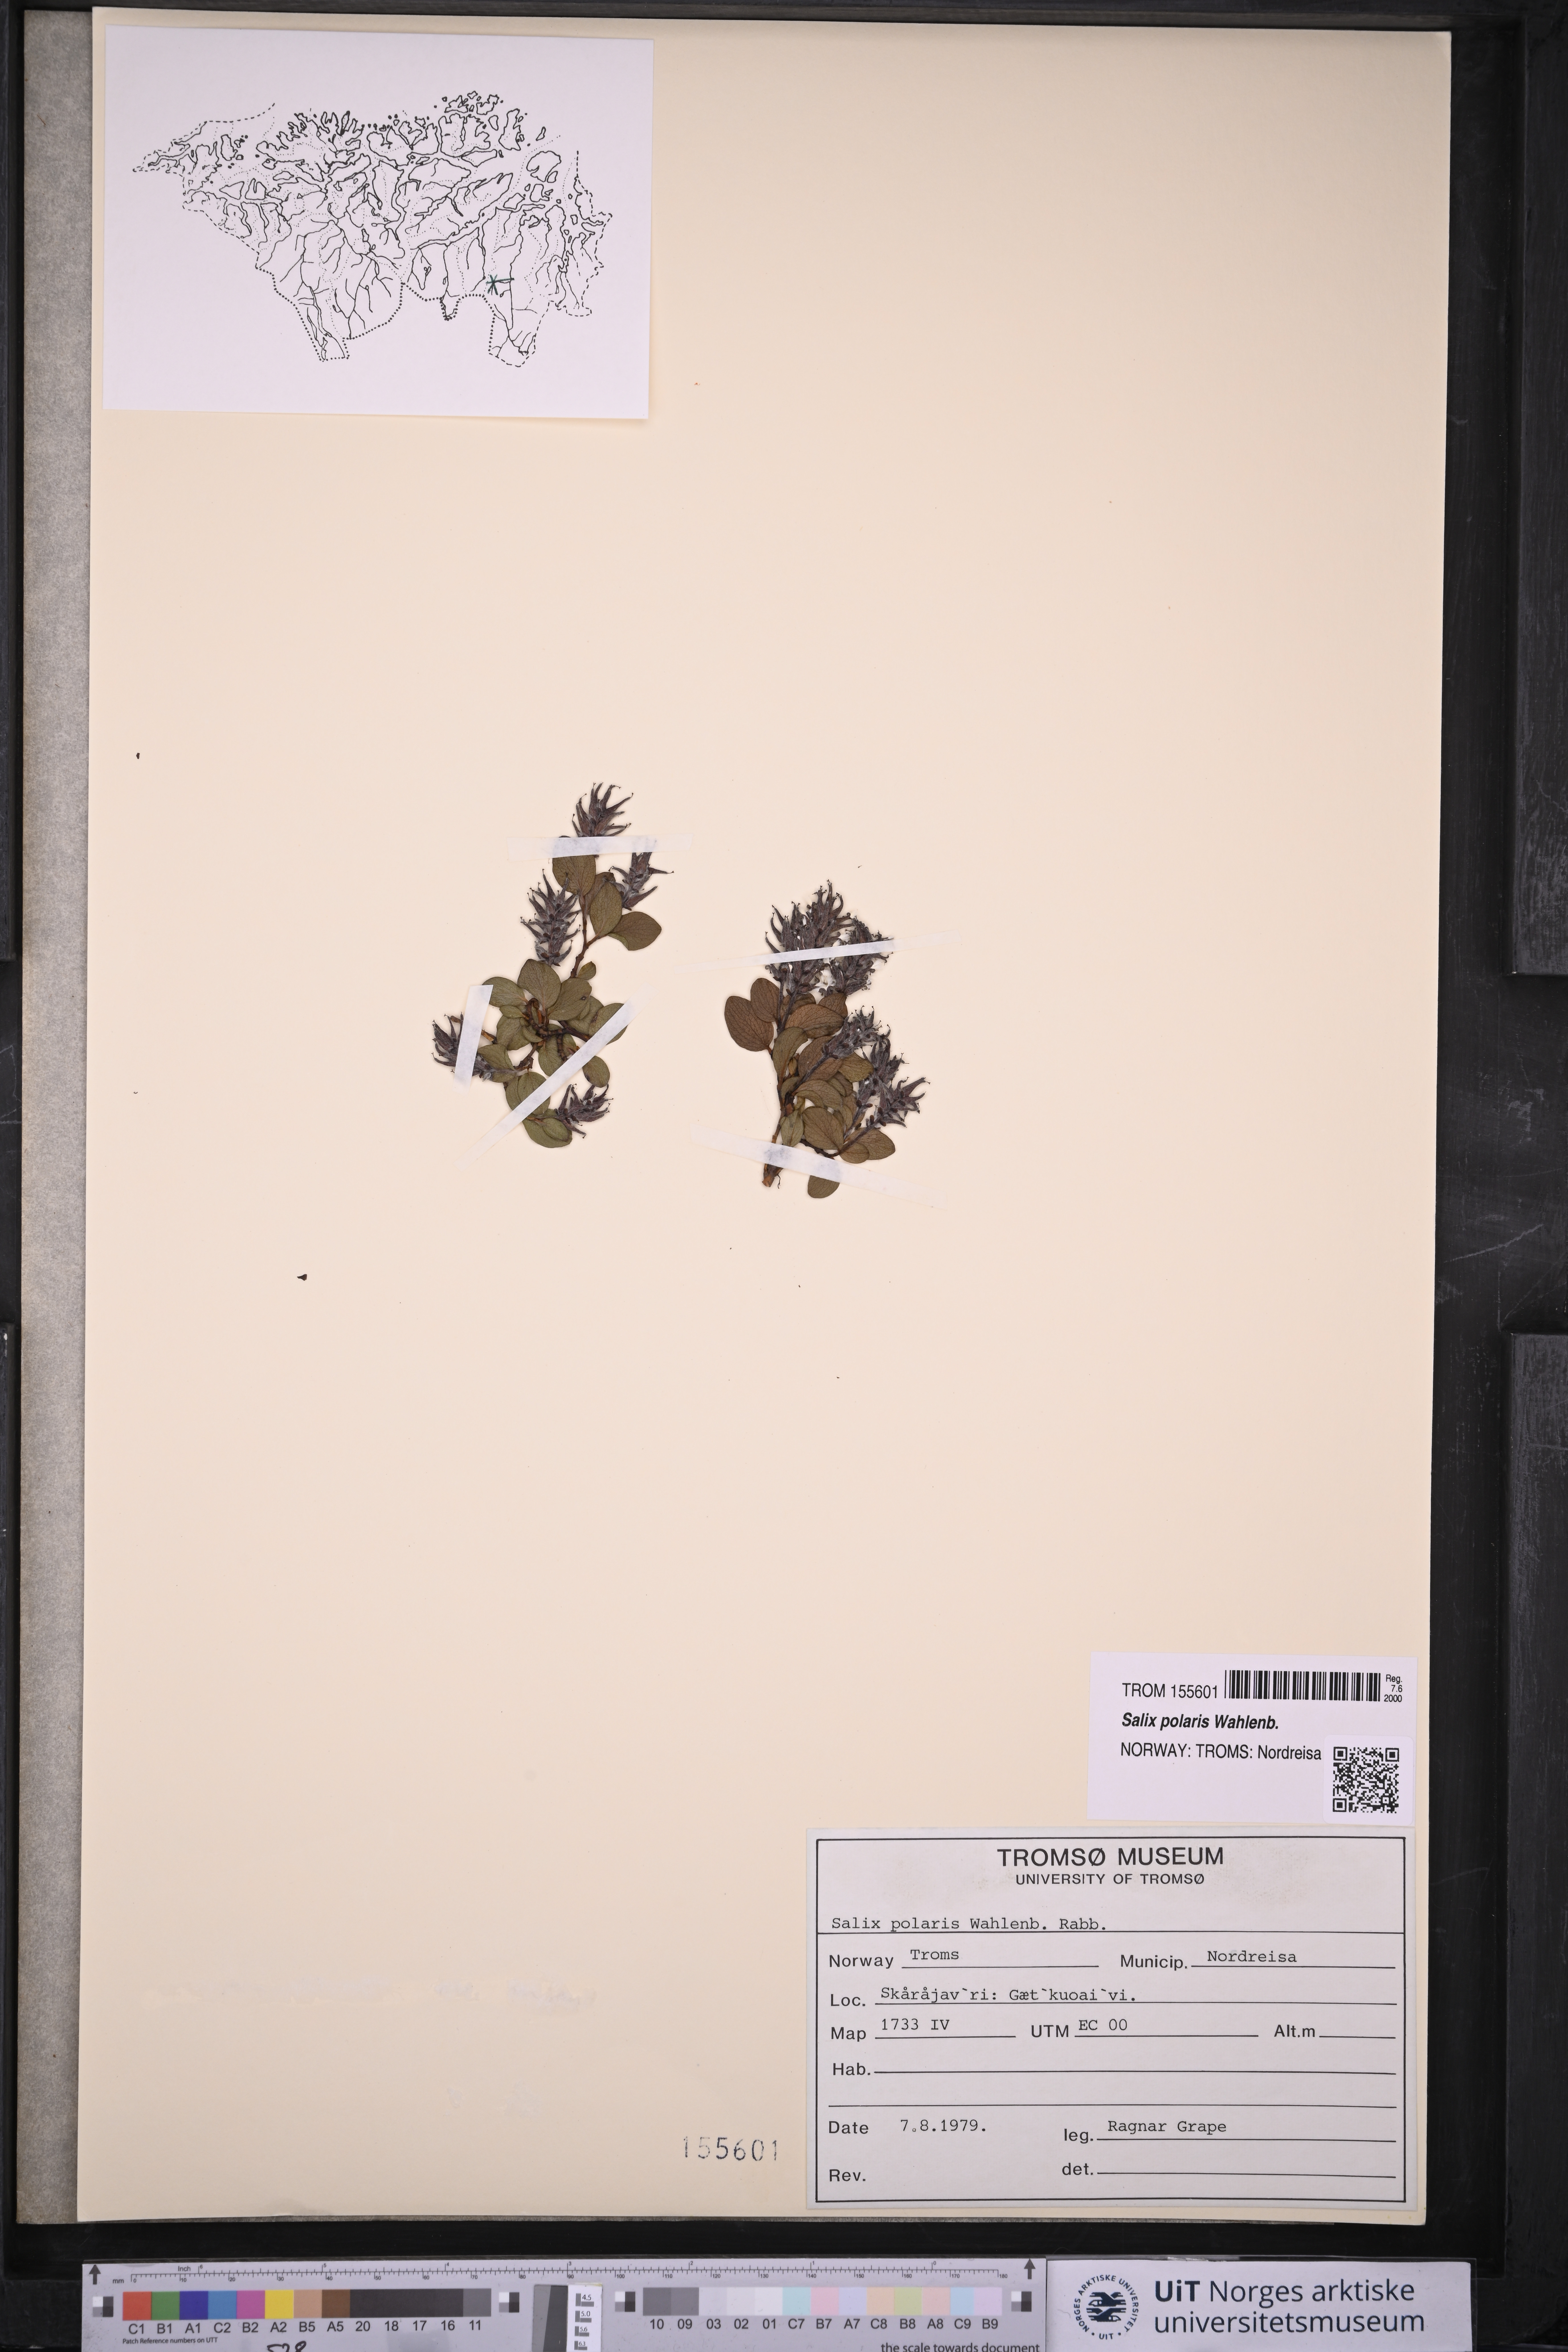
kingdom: Plantae
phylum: Tracheophyta
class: Magnoliopsida
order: Malpighiales
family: Salicaceae
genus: Salix
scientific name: Salix polaris
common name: Polar willow
